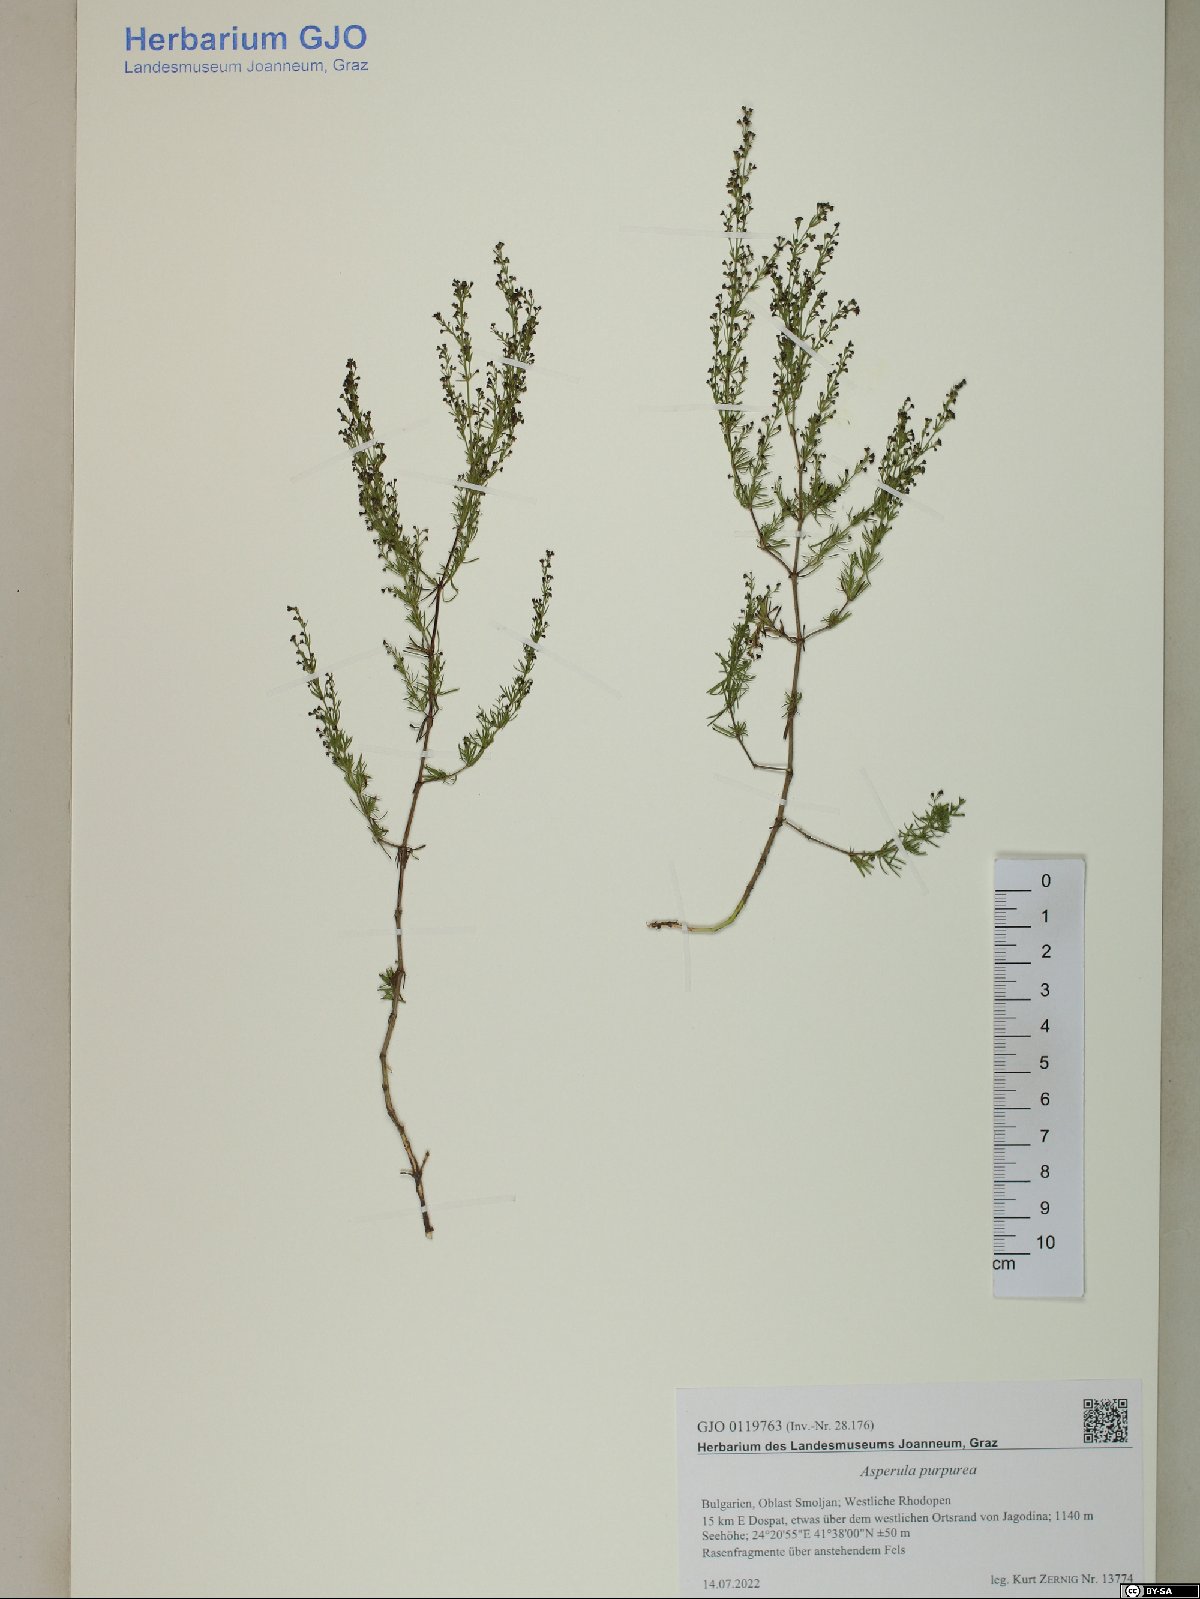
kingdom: Plantae
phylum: Tracheophyta
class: Magnoliopsida
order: Gentianales
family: Rubiaceae
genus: Thliphthisa
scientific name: Thliphthisa purpurea
